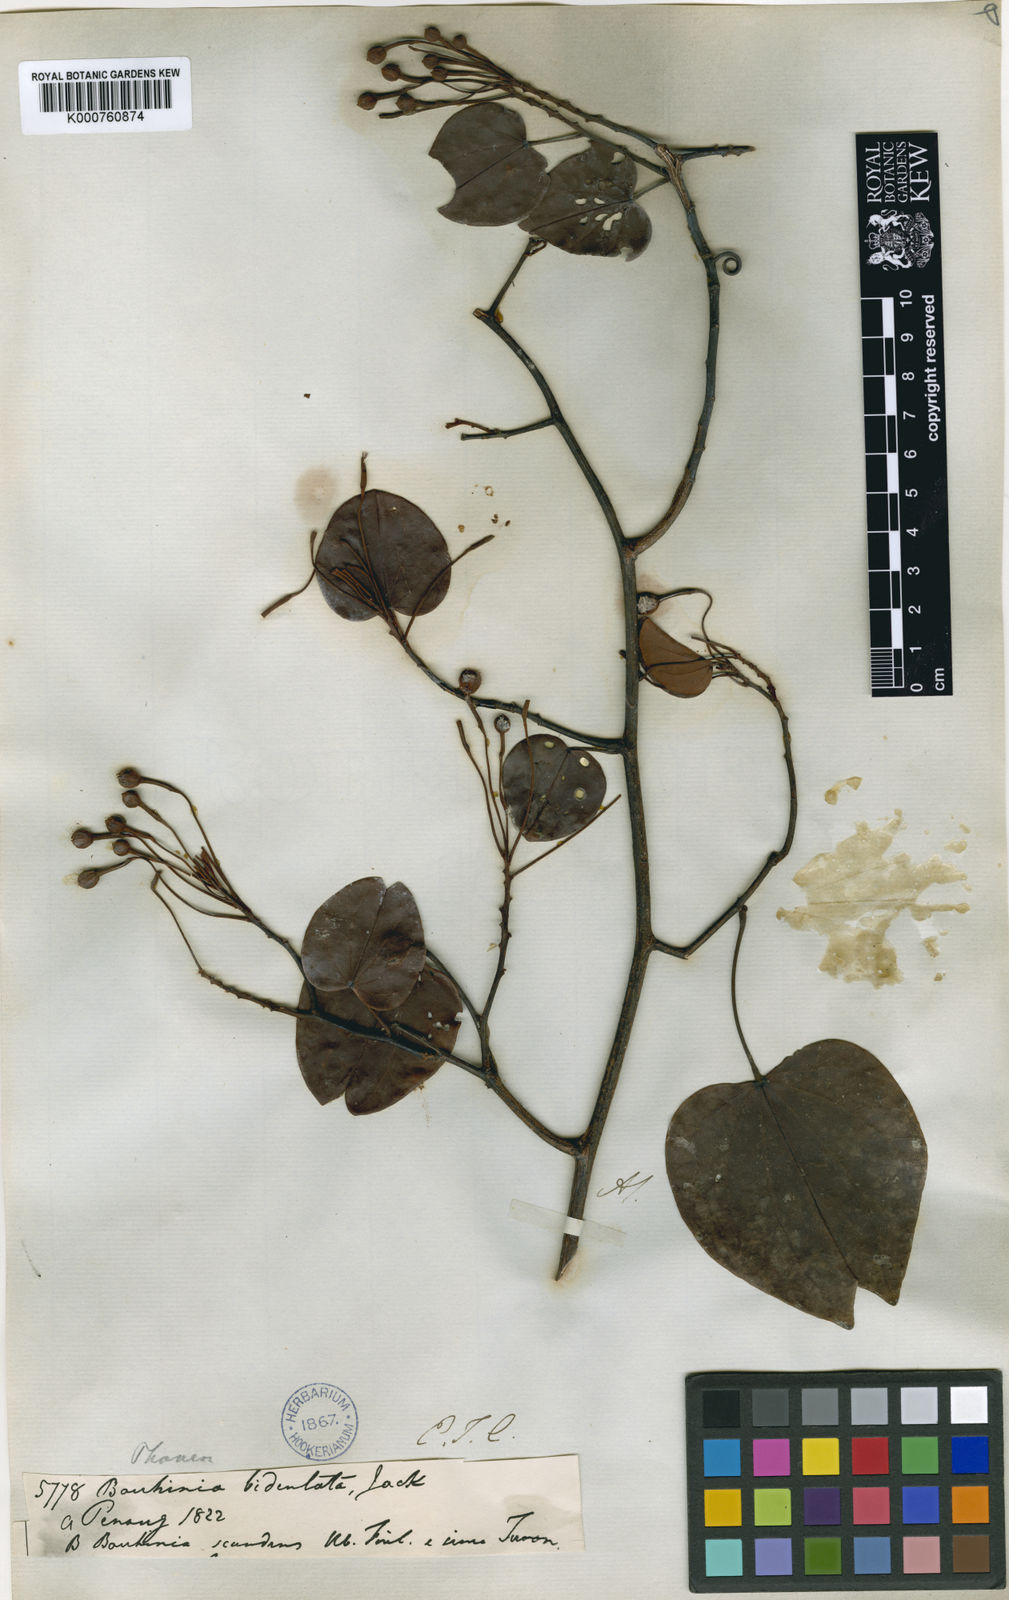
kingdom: Plantae
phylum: Tracheophyta
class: Magnoliopsida
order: Fabales
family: Fabaceae
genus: Phanera
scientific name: Phanera bidentata
